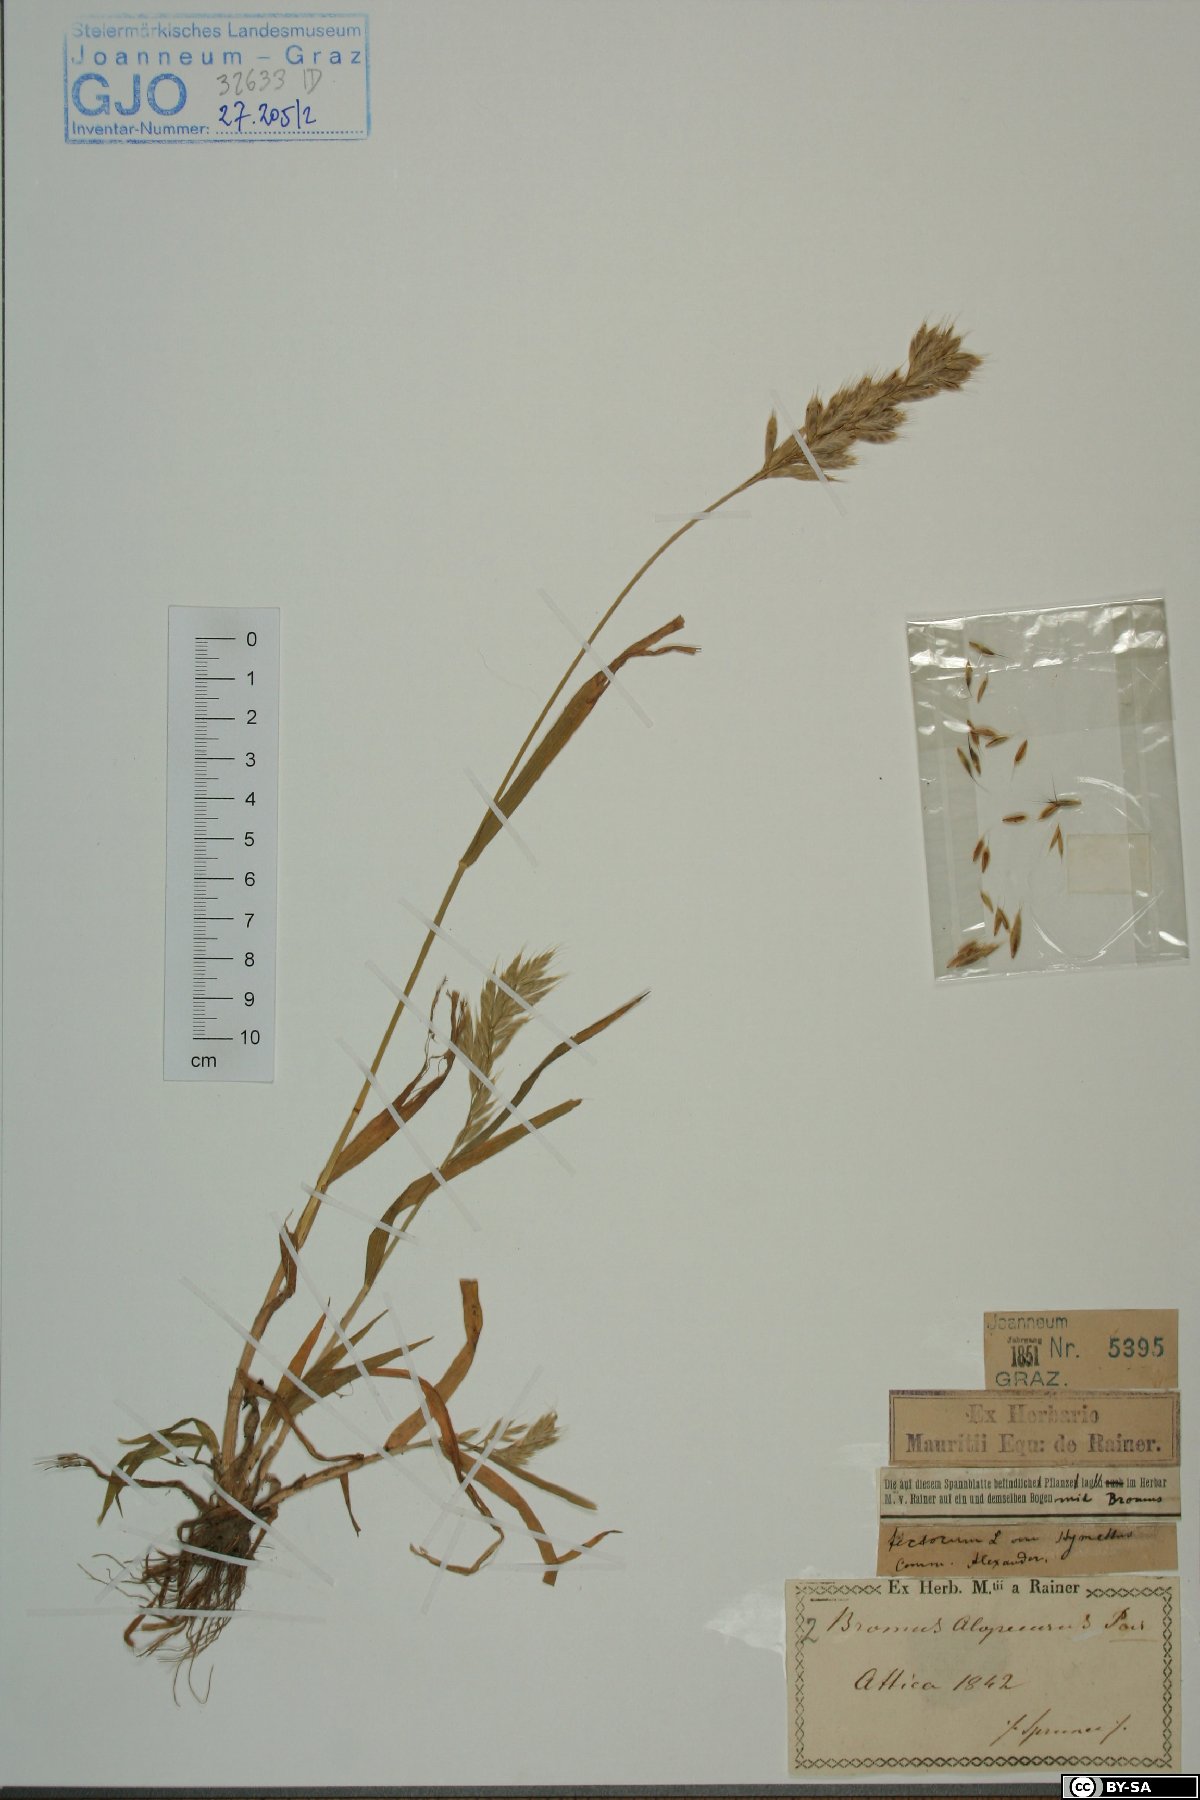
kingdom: Plantae
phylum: Tracheophyta
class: Liliopsida
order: Poales
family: Poaceae
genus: Bromus
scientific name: Bromus alopecuros
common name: Weedy brome
